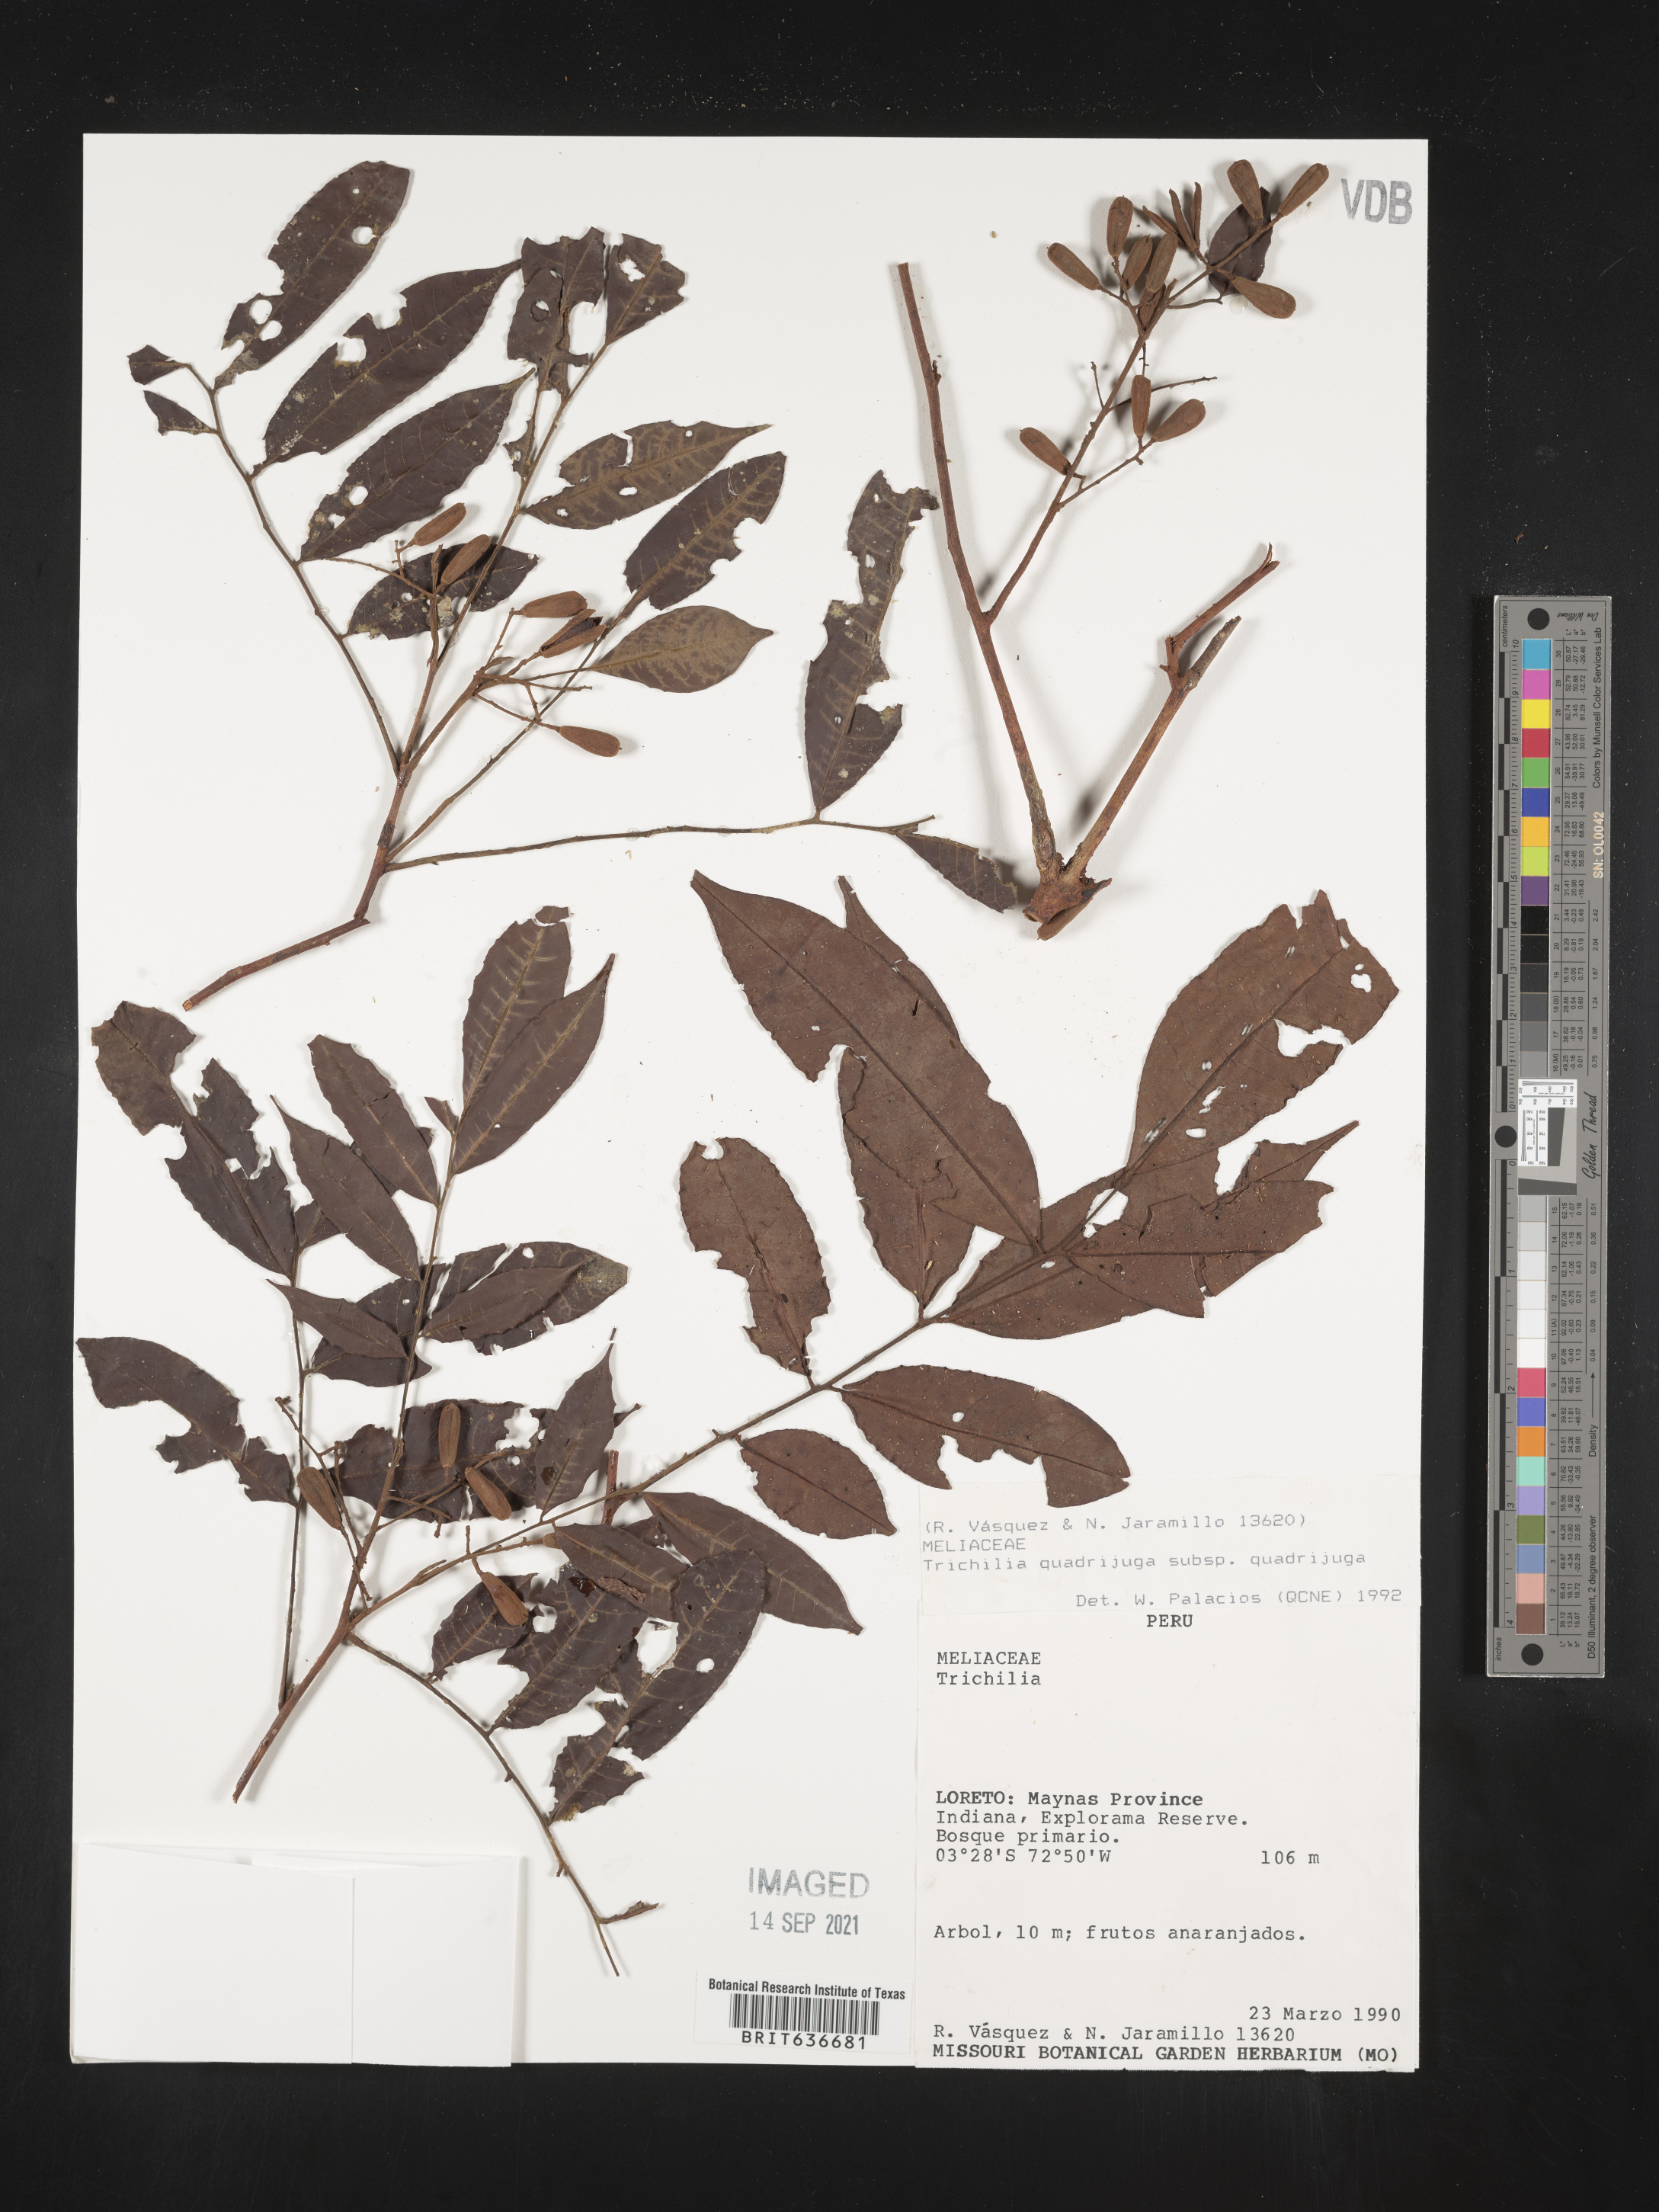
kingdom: Plantae
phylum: Tracheophyta
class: Magnoliopsida
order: Sapindales
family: Meliaceae
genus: Trichilia
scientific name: Trichilia
